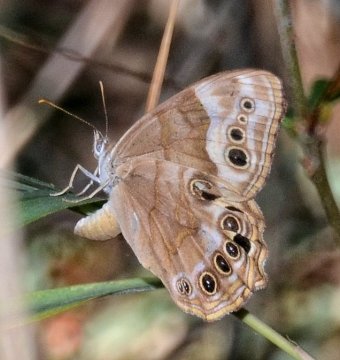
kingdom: Animalia
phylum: Arthropoda
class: Insecta
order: Lepidoptera
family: Nymphalidae
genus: Enodia
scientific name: Enodia portlandia
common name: Southern Pearly Eye
